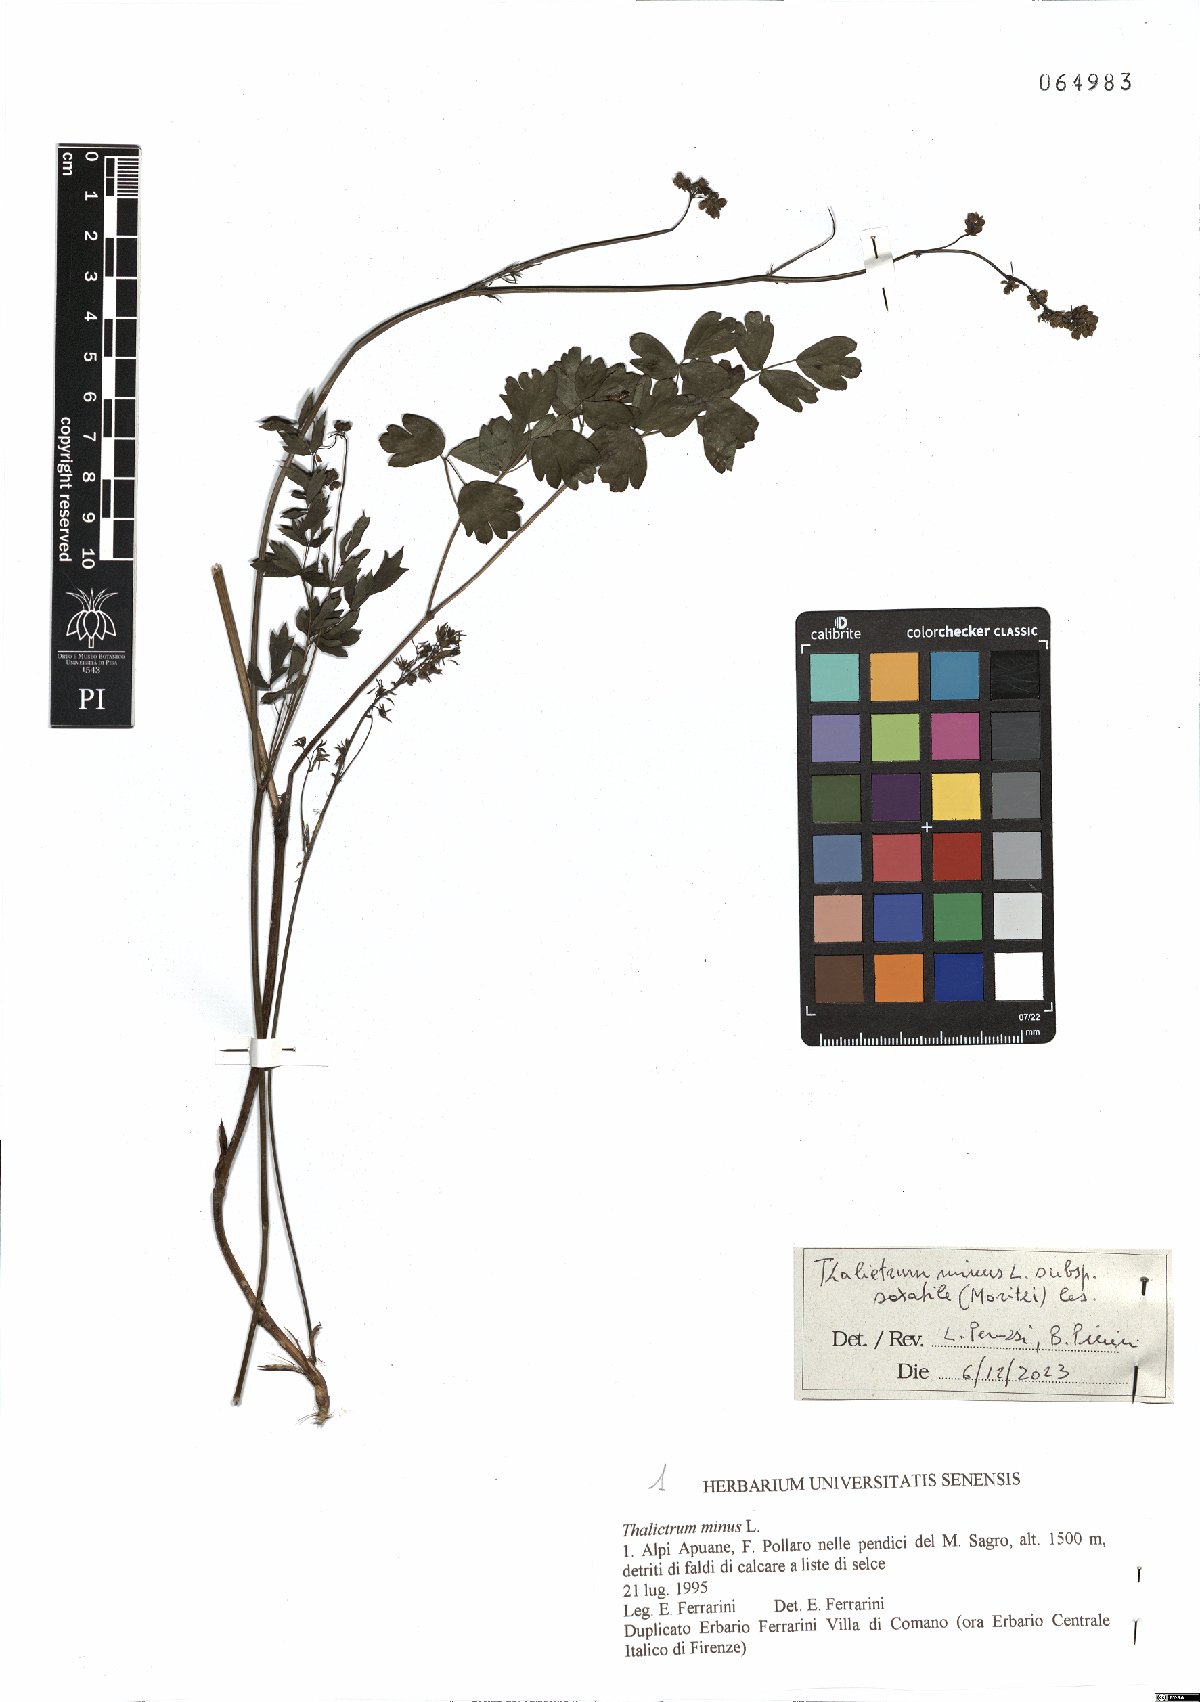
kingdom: Plantae
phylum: Tracheophyta
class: Magnoliopsida
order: Ranunculales
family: Ranunculaceae
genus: Thalictrum
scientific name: Thalictrum minus
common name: Lesser meadow-rue
